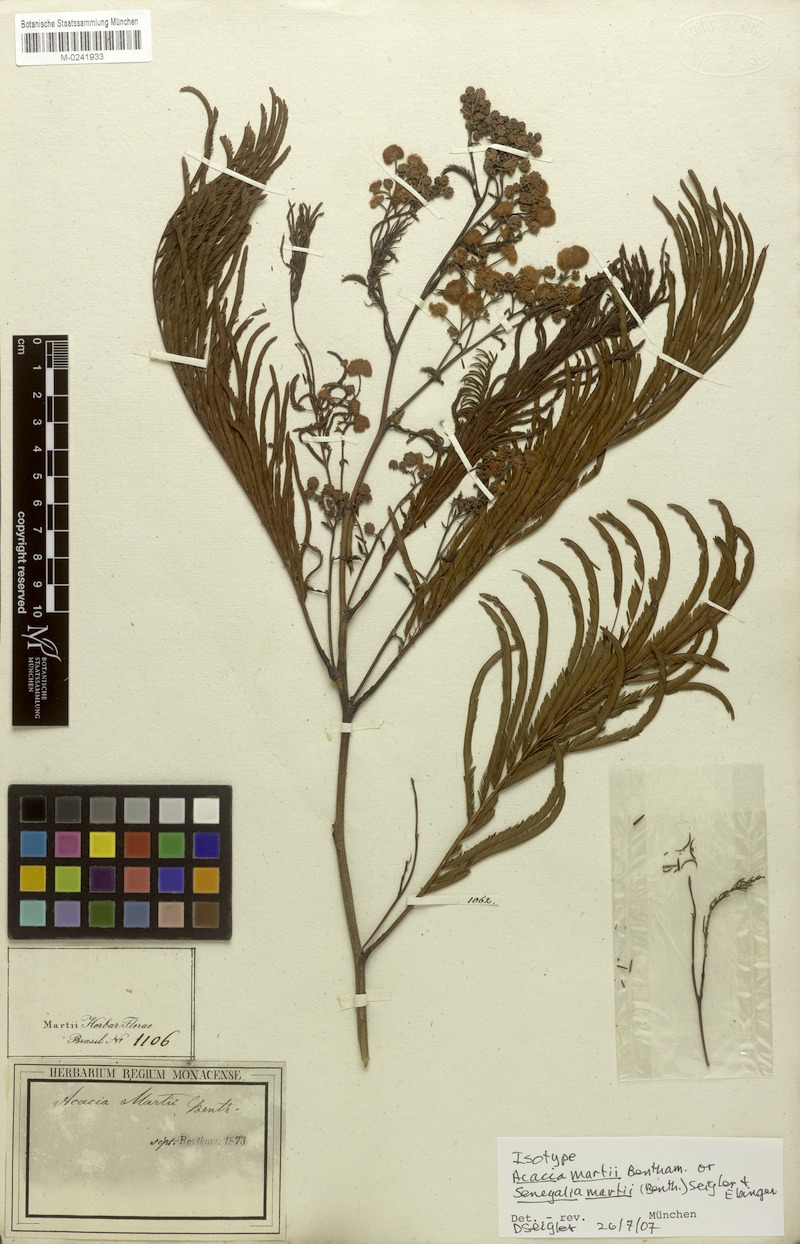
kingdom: Plantae
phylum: Tracheophyta
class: Magnoliopsida
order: Fabales
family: Fabaceae
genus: Senegalia
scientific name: Senegalia martii
